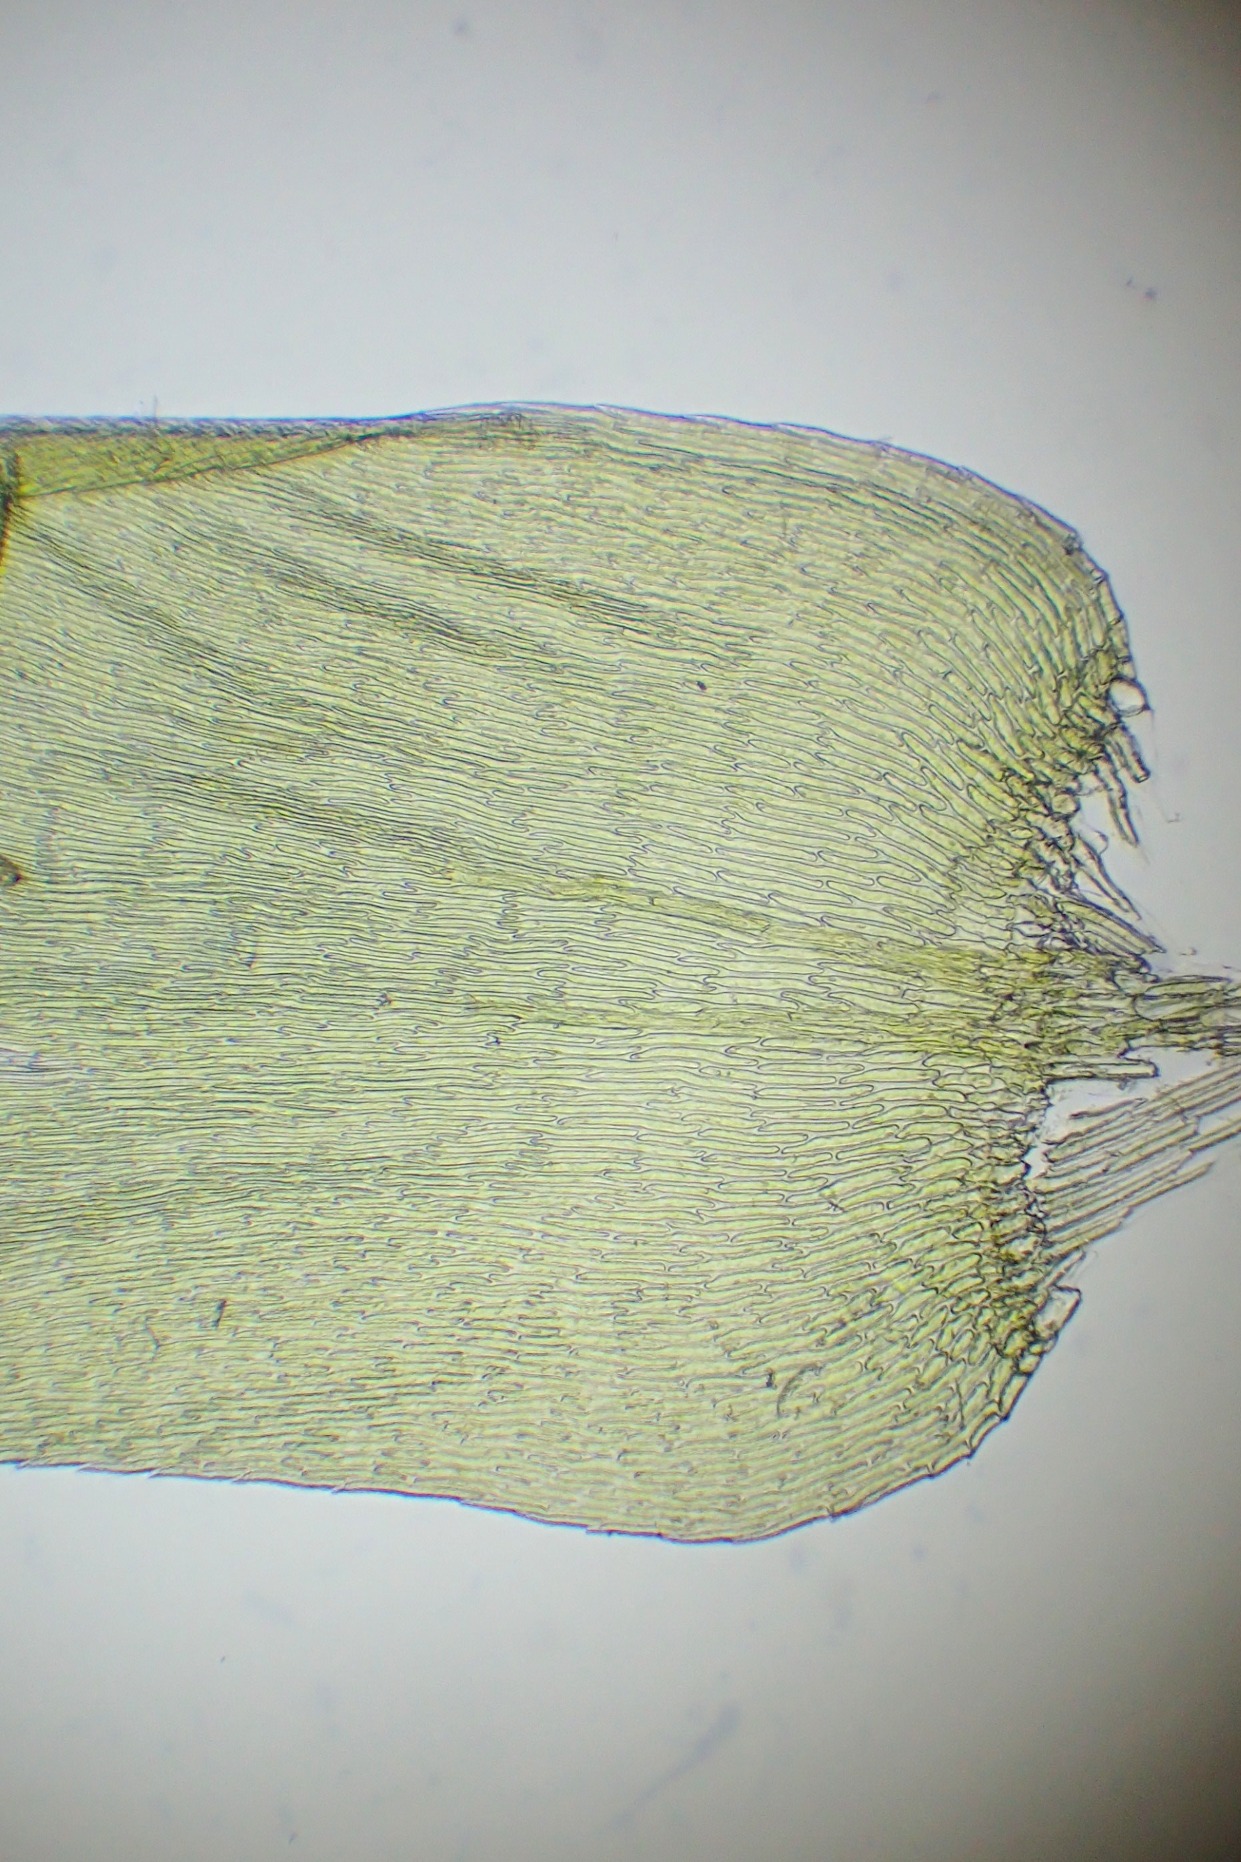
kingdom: Plantae
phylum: Bryophyta
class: Bryopsida
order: Hypnales
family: Plagiotheciaceae
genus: Herzogiella
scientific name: Herzogiella seligeri
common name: Stub-pølsekapsel
